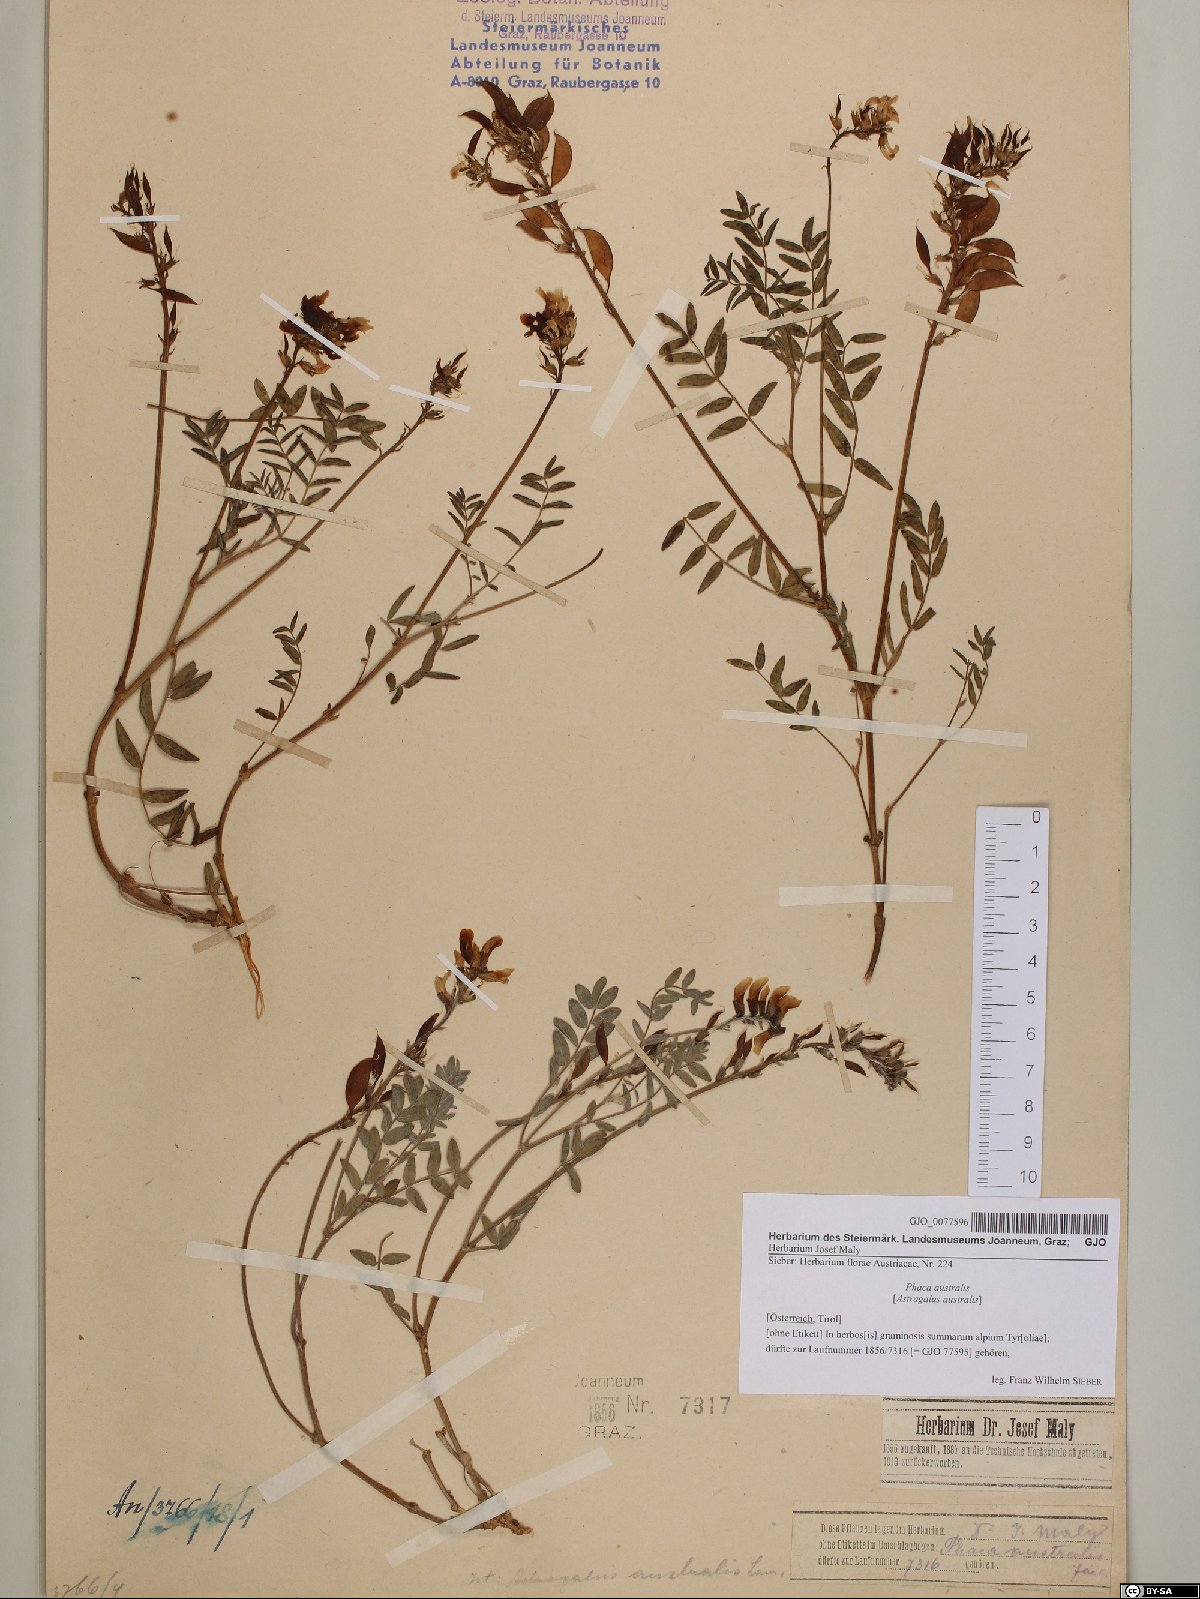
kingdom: Plantae
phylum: Tracheophyta
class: Magnoliopsida
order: Fabales
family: Fabaceae
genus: Astragalus
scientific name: Astragalus australis
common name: Indian milk-vetch
